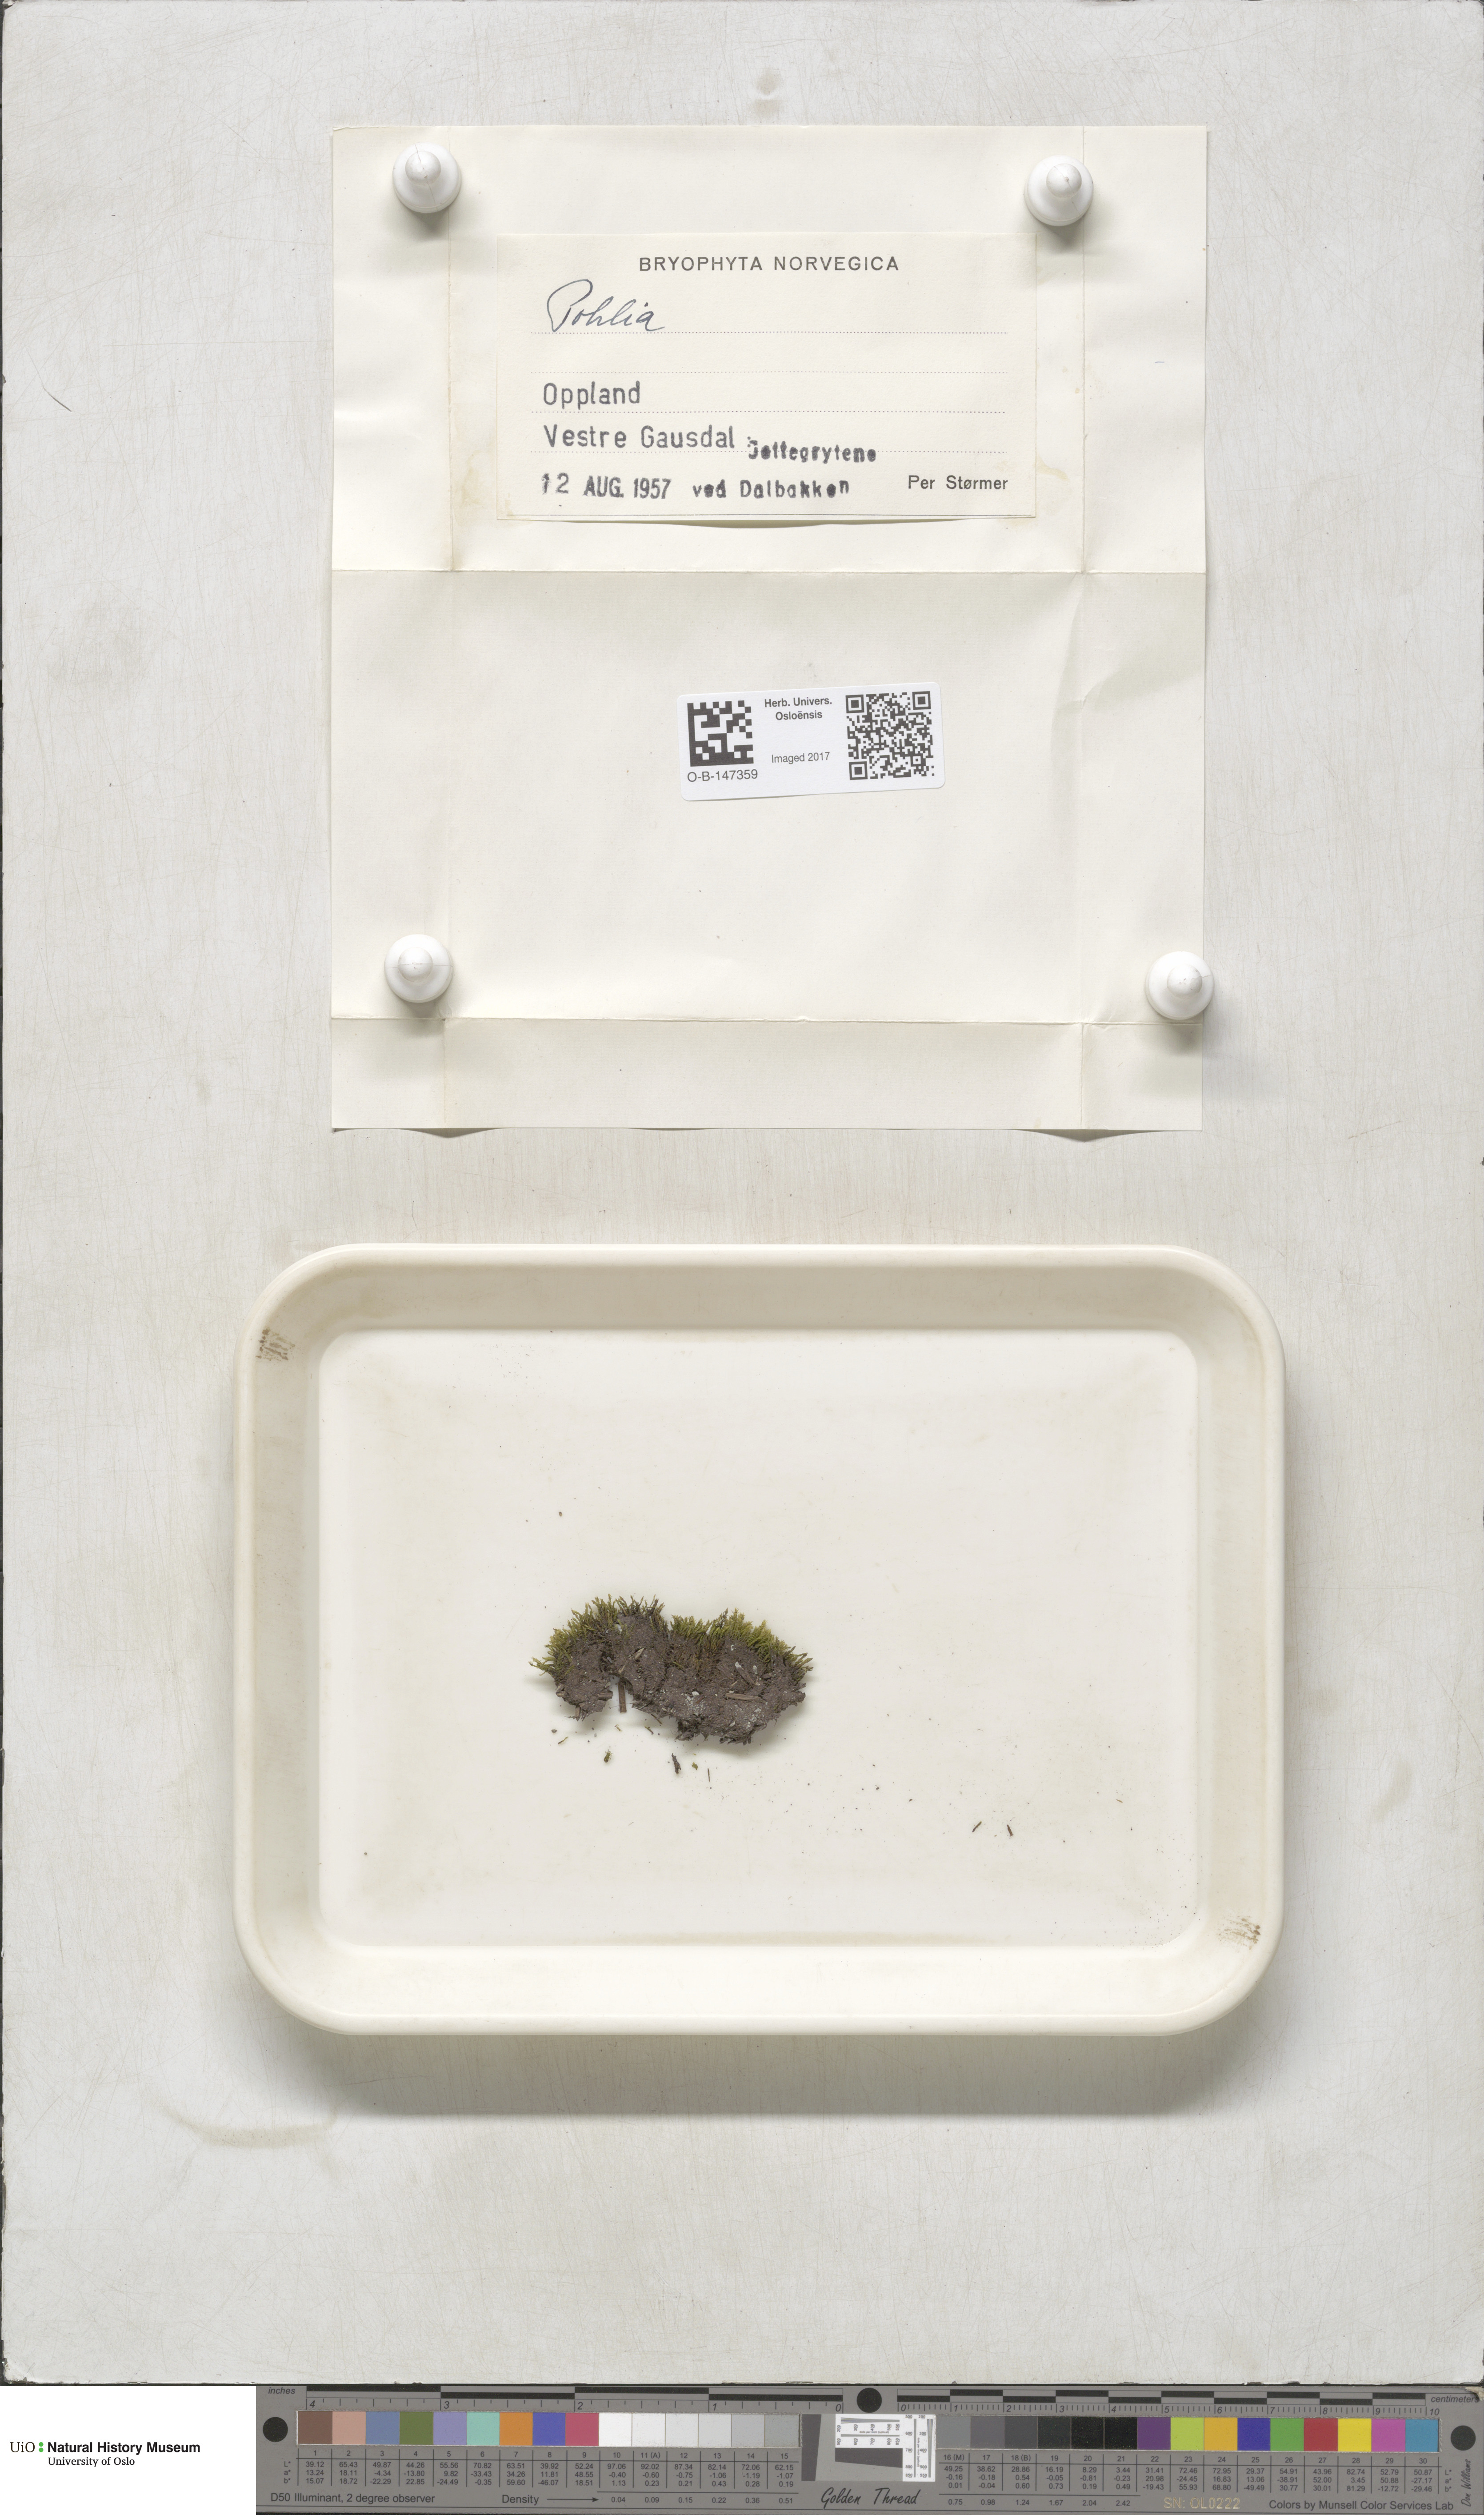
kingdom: Plantae
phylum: Bryophyta
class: Bryopsida
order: Bryales
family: Mniaceae
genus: Pohlia
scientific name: Pohlia
